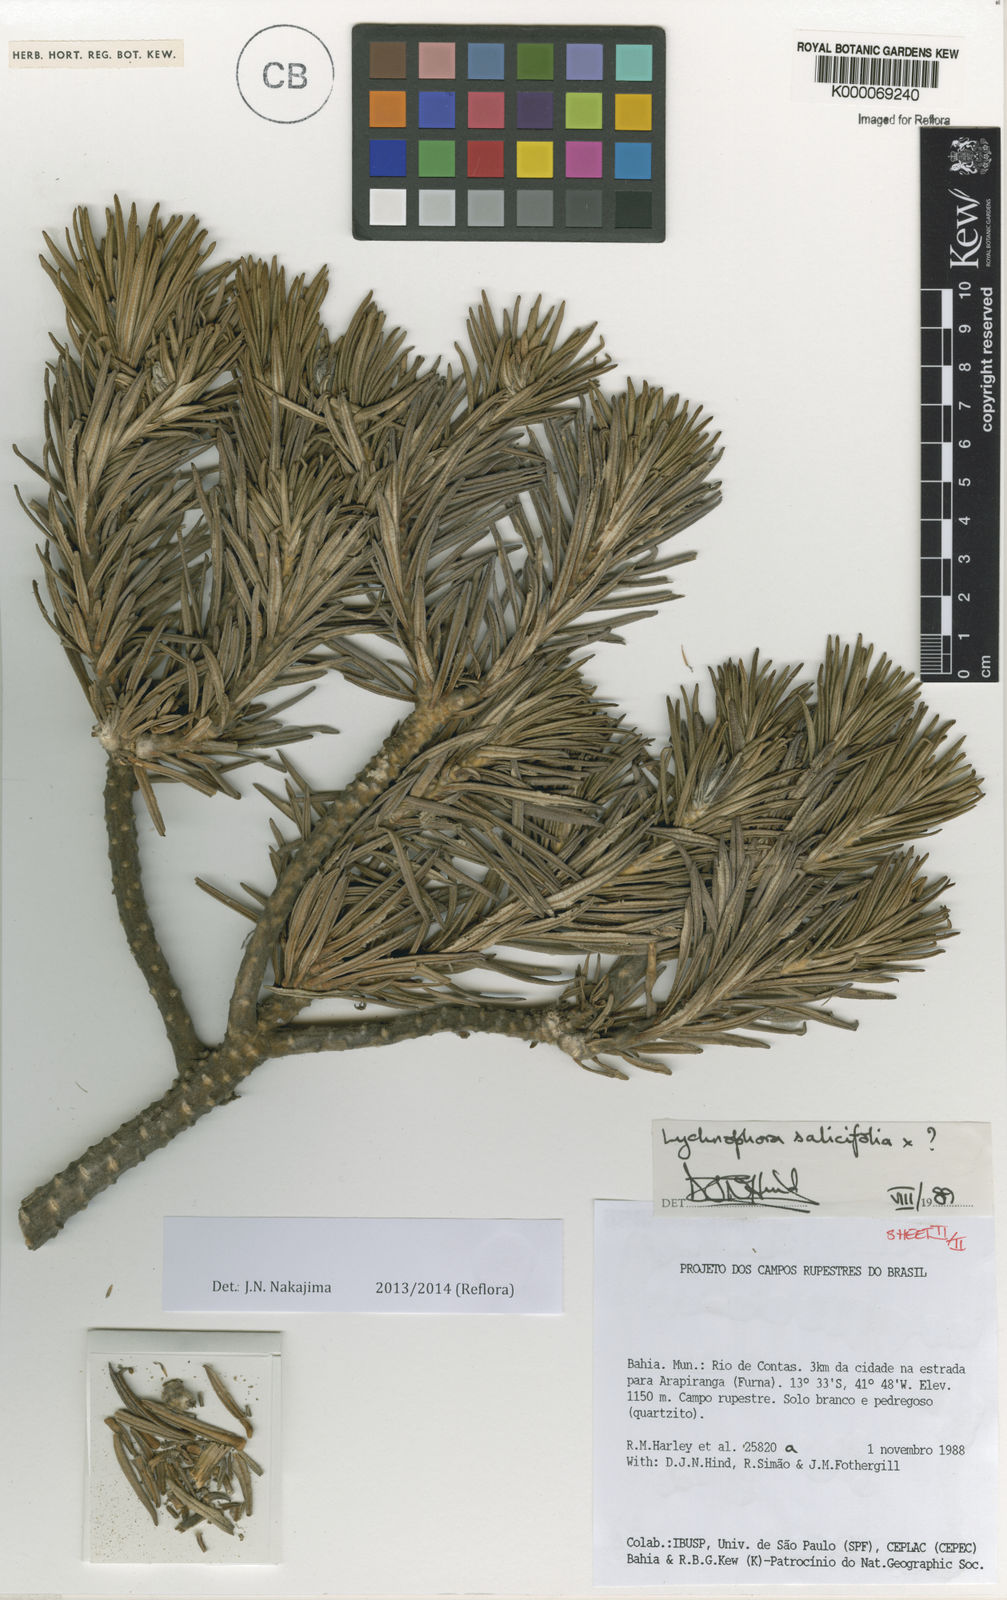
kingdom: Plantae
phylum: Tracheophyta
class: Magnoliopsida
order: Asterales
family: Asteraceae
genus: Lychnophora
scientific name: Lychnophora salicifolia
